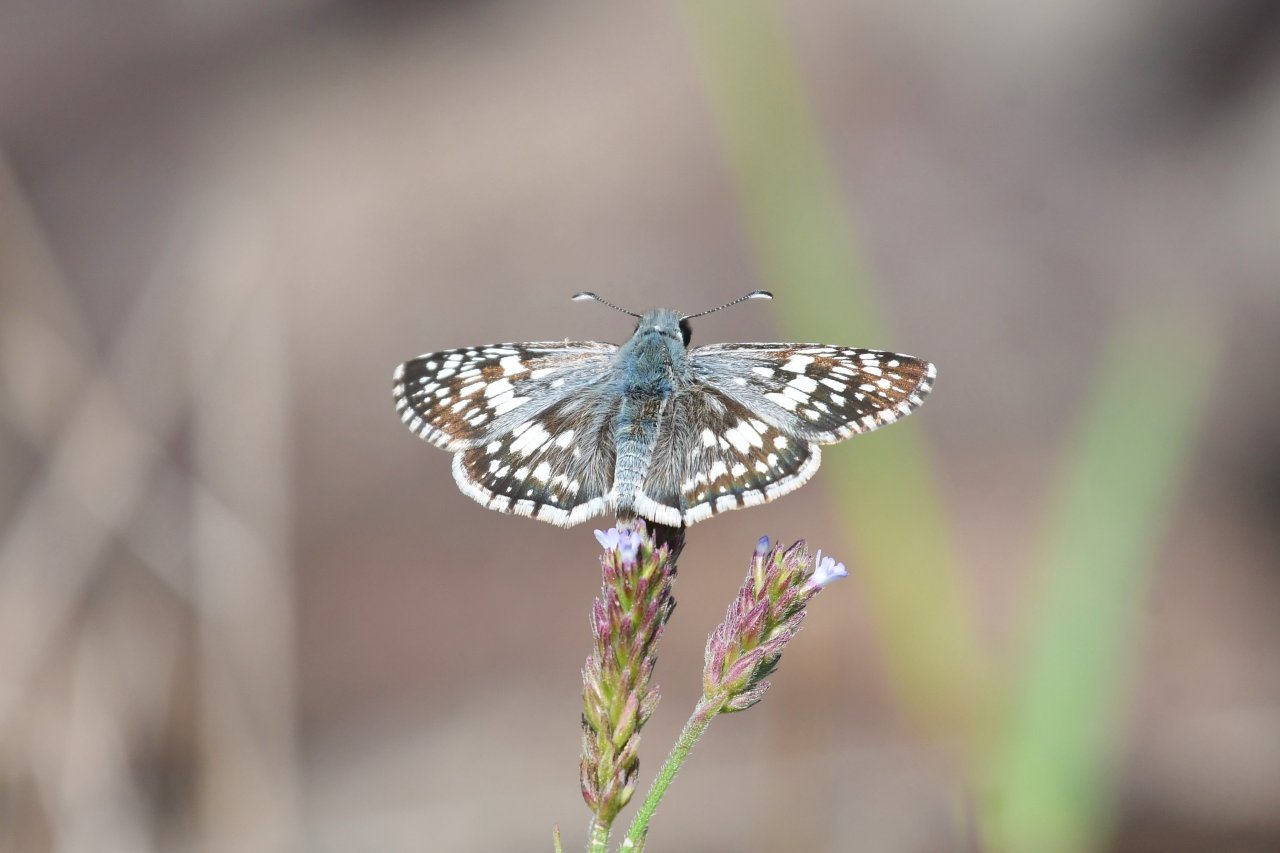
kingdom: Animalia
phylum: Arthropoda
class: Insecta
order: Lepidoptera
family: Hesperiidae
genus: Pyrgus
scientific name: Pyrgus communis
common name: Common Checkered-Skipper
